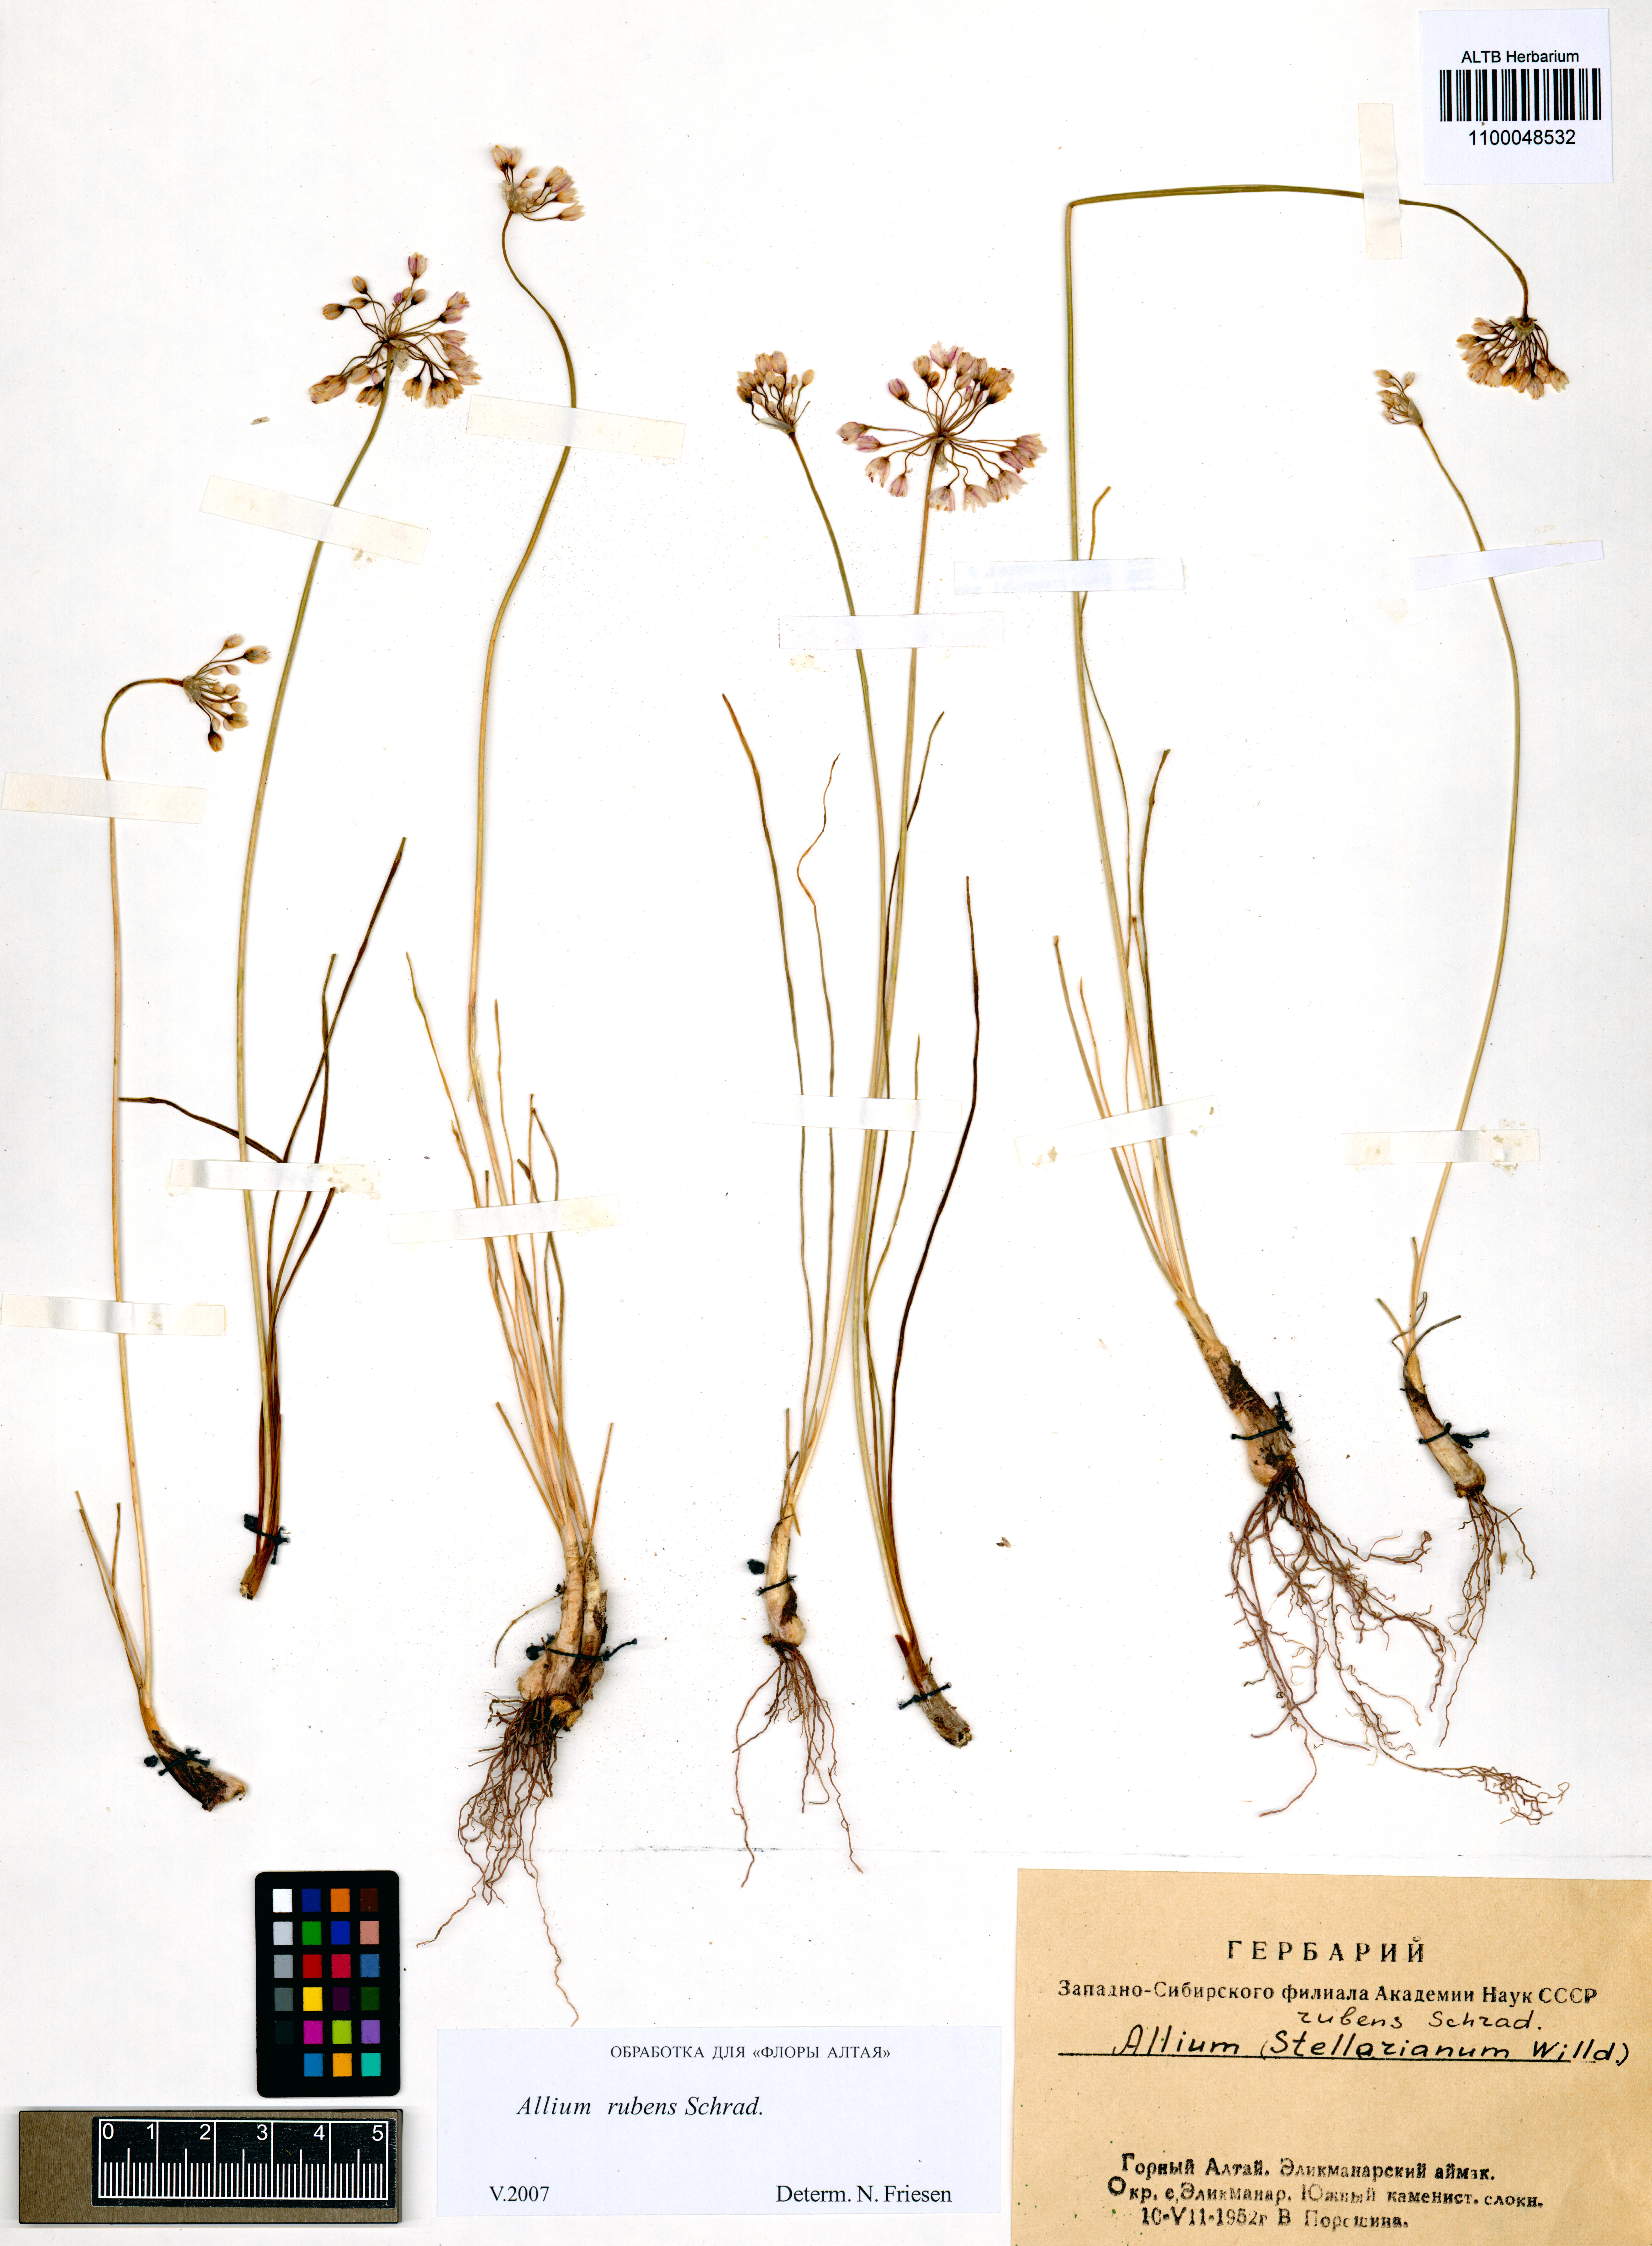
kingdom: Plantae
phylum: Tracheophyta
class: Liliopsida
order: Asparagales
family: Amaryllidaceae
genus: Allium
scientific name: Allium rubens
